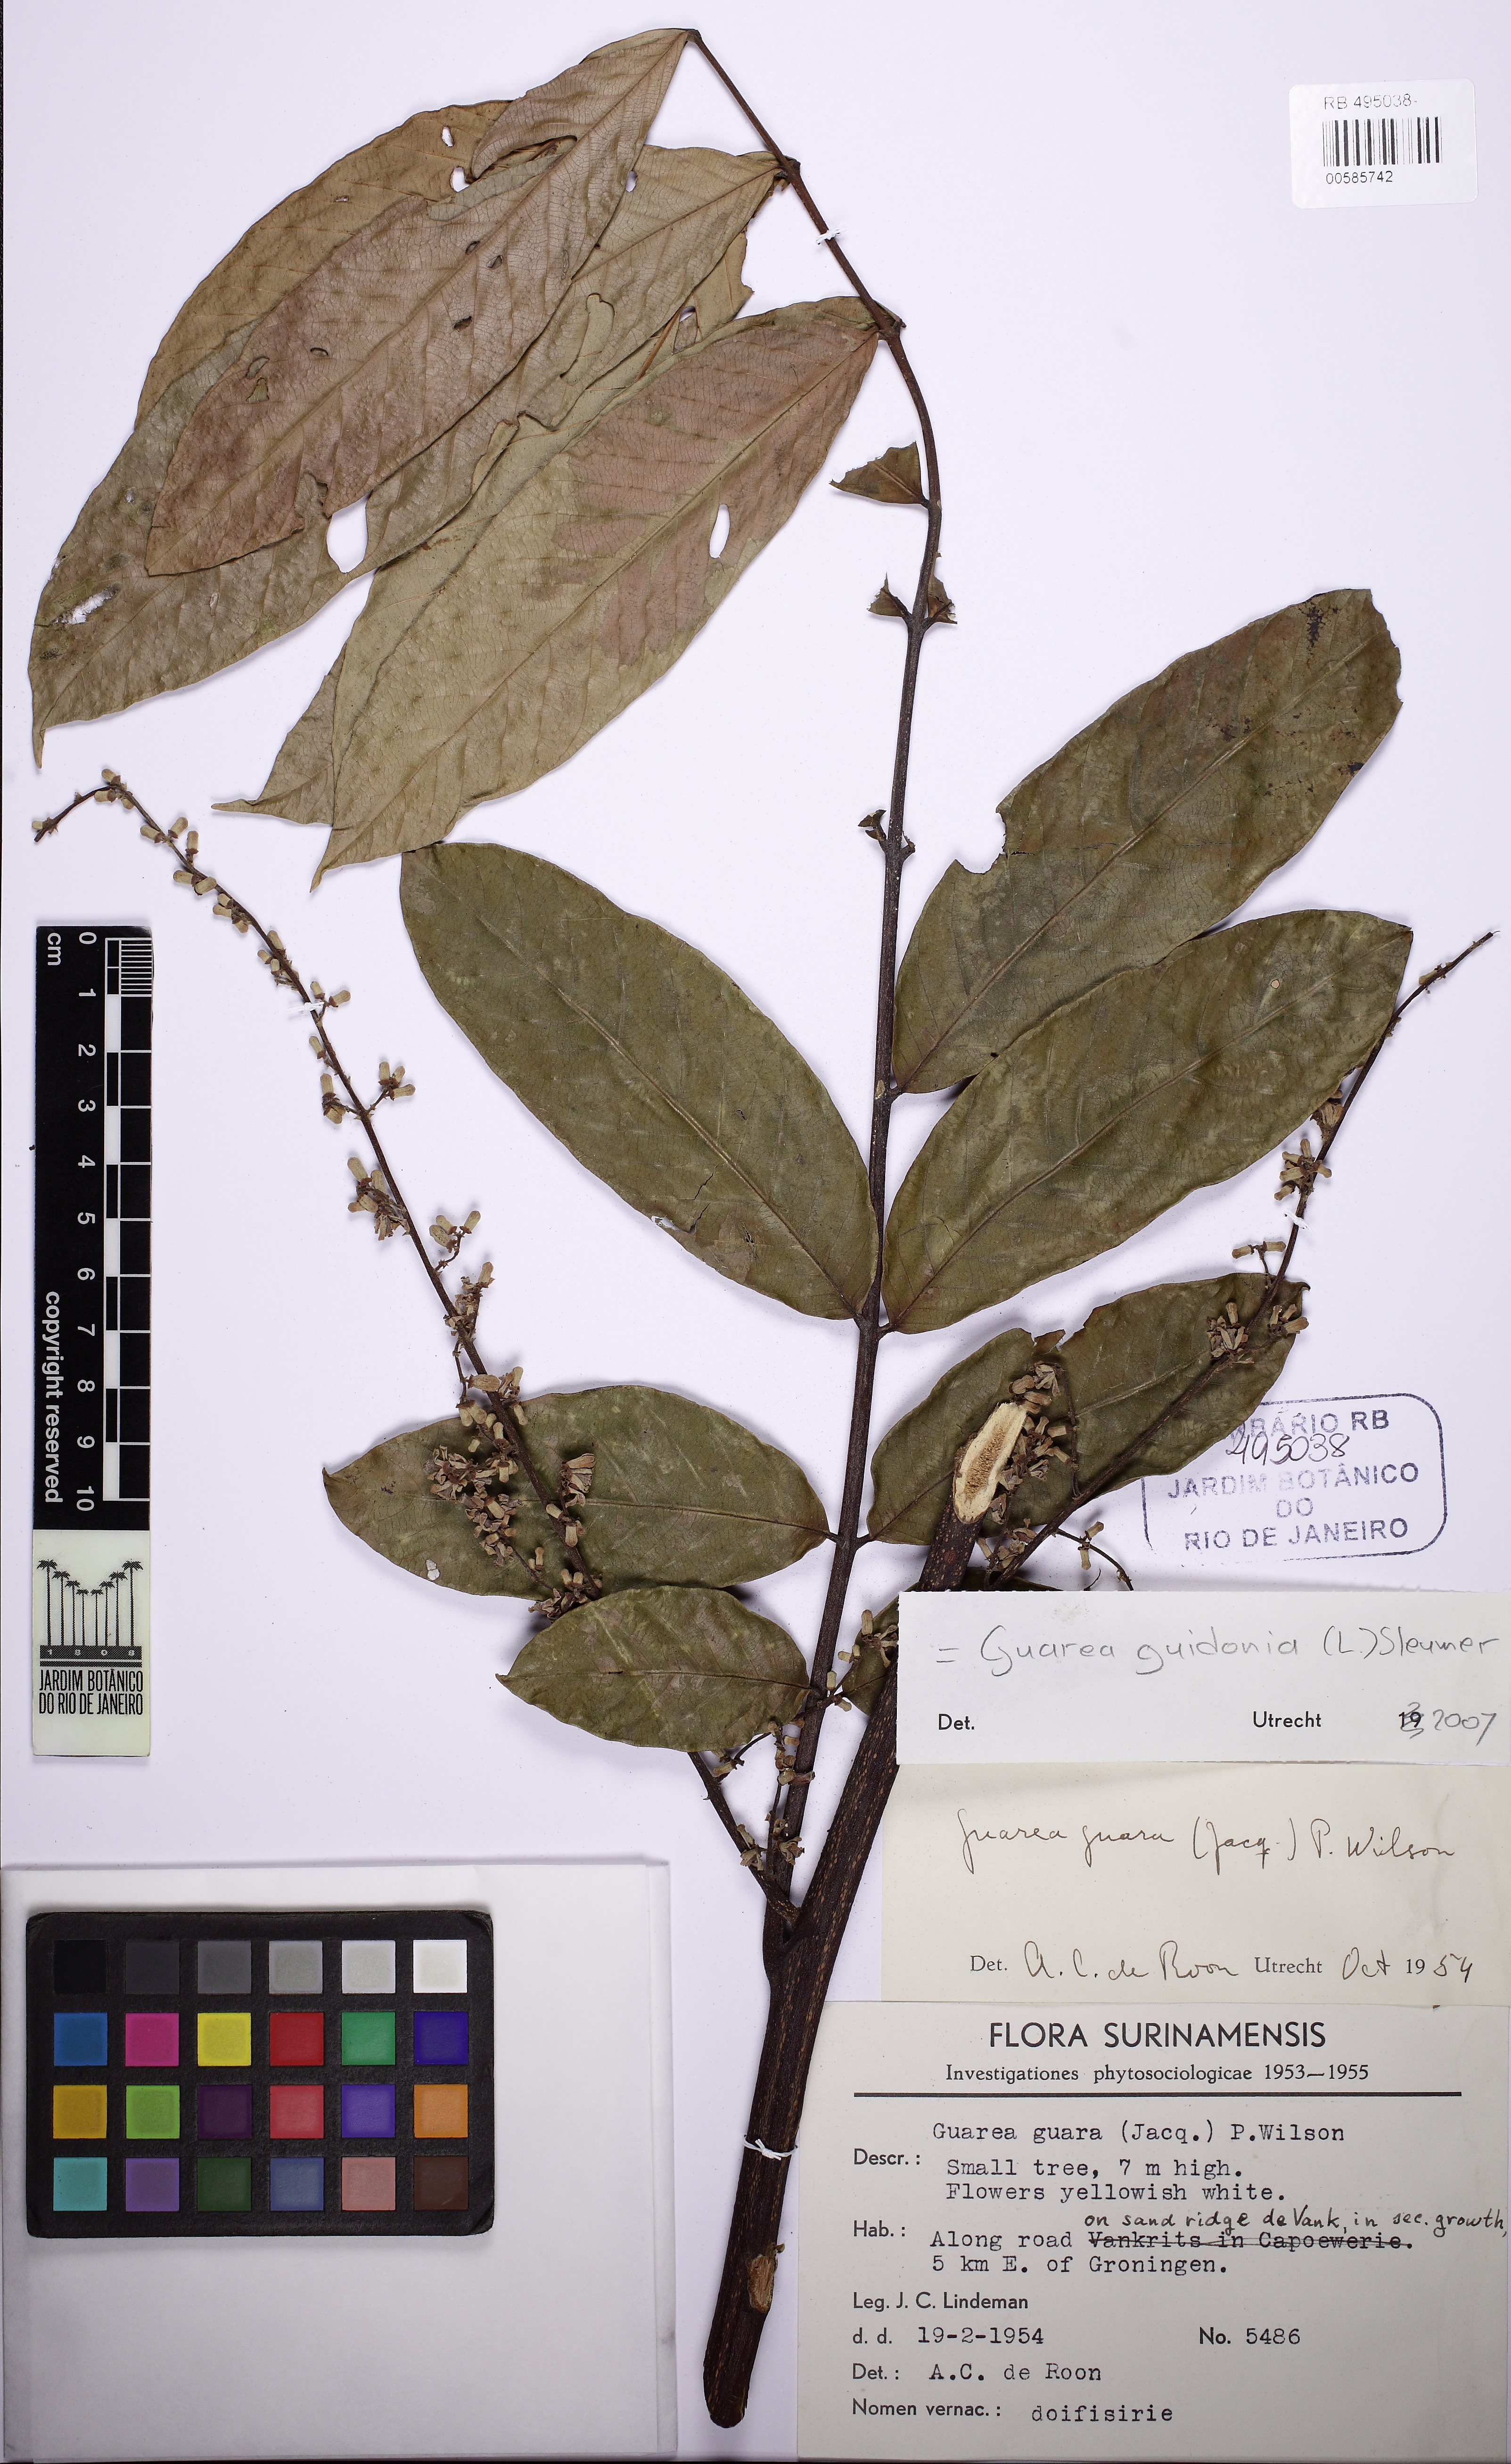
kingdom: Plantae
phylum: Tracheophyta
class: Magnoliopsida
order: Sapindales
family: Meliaceae
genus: Guarea
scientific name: Guarea guidonia
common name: American muskwood
